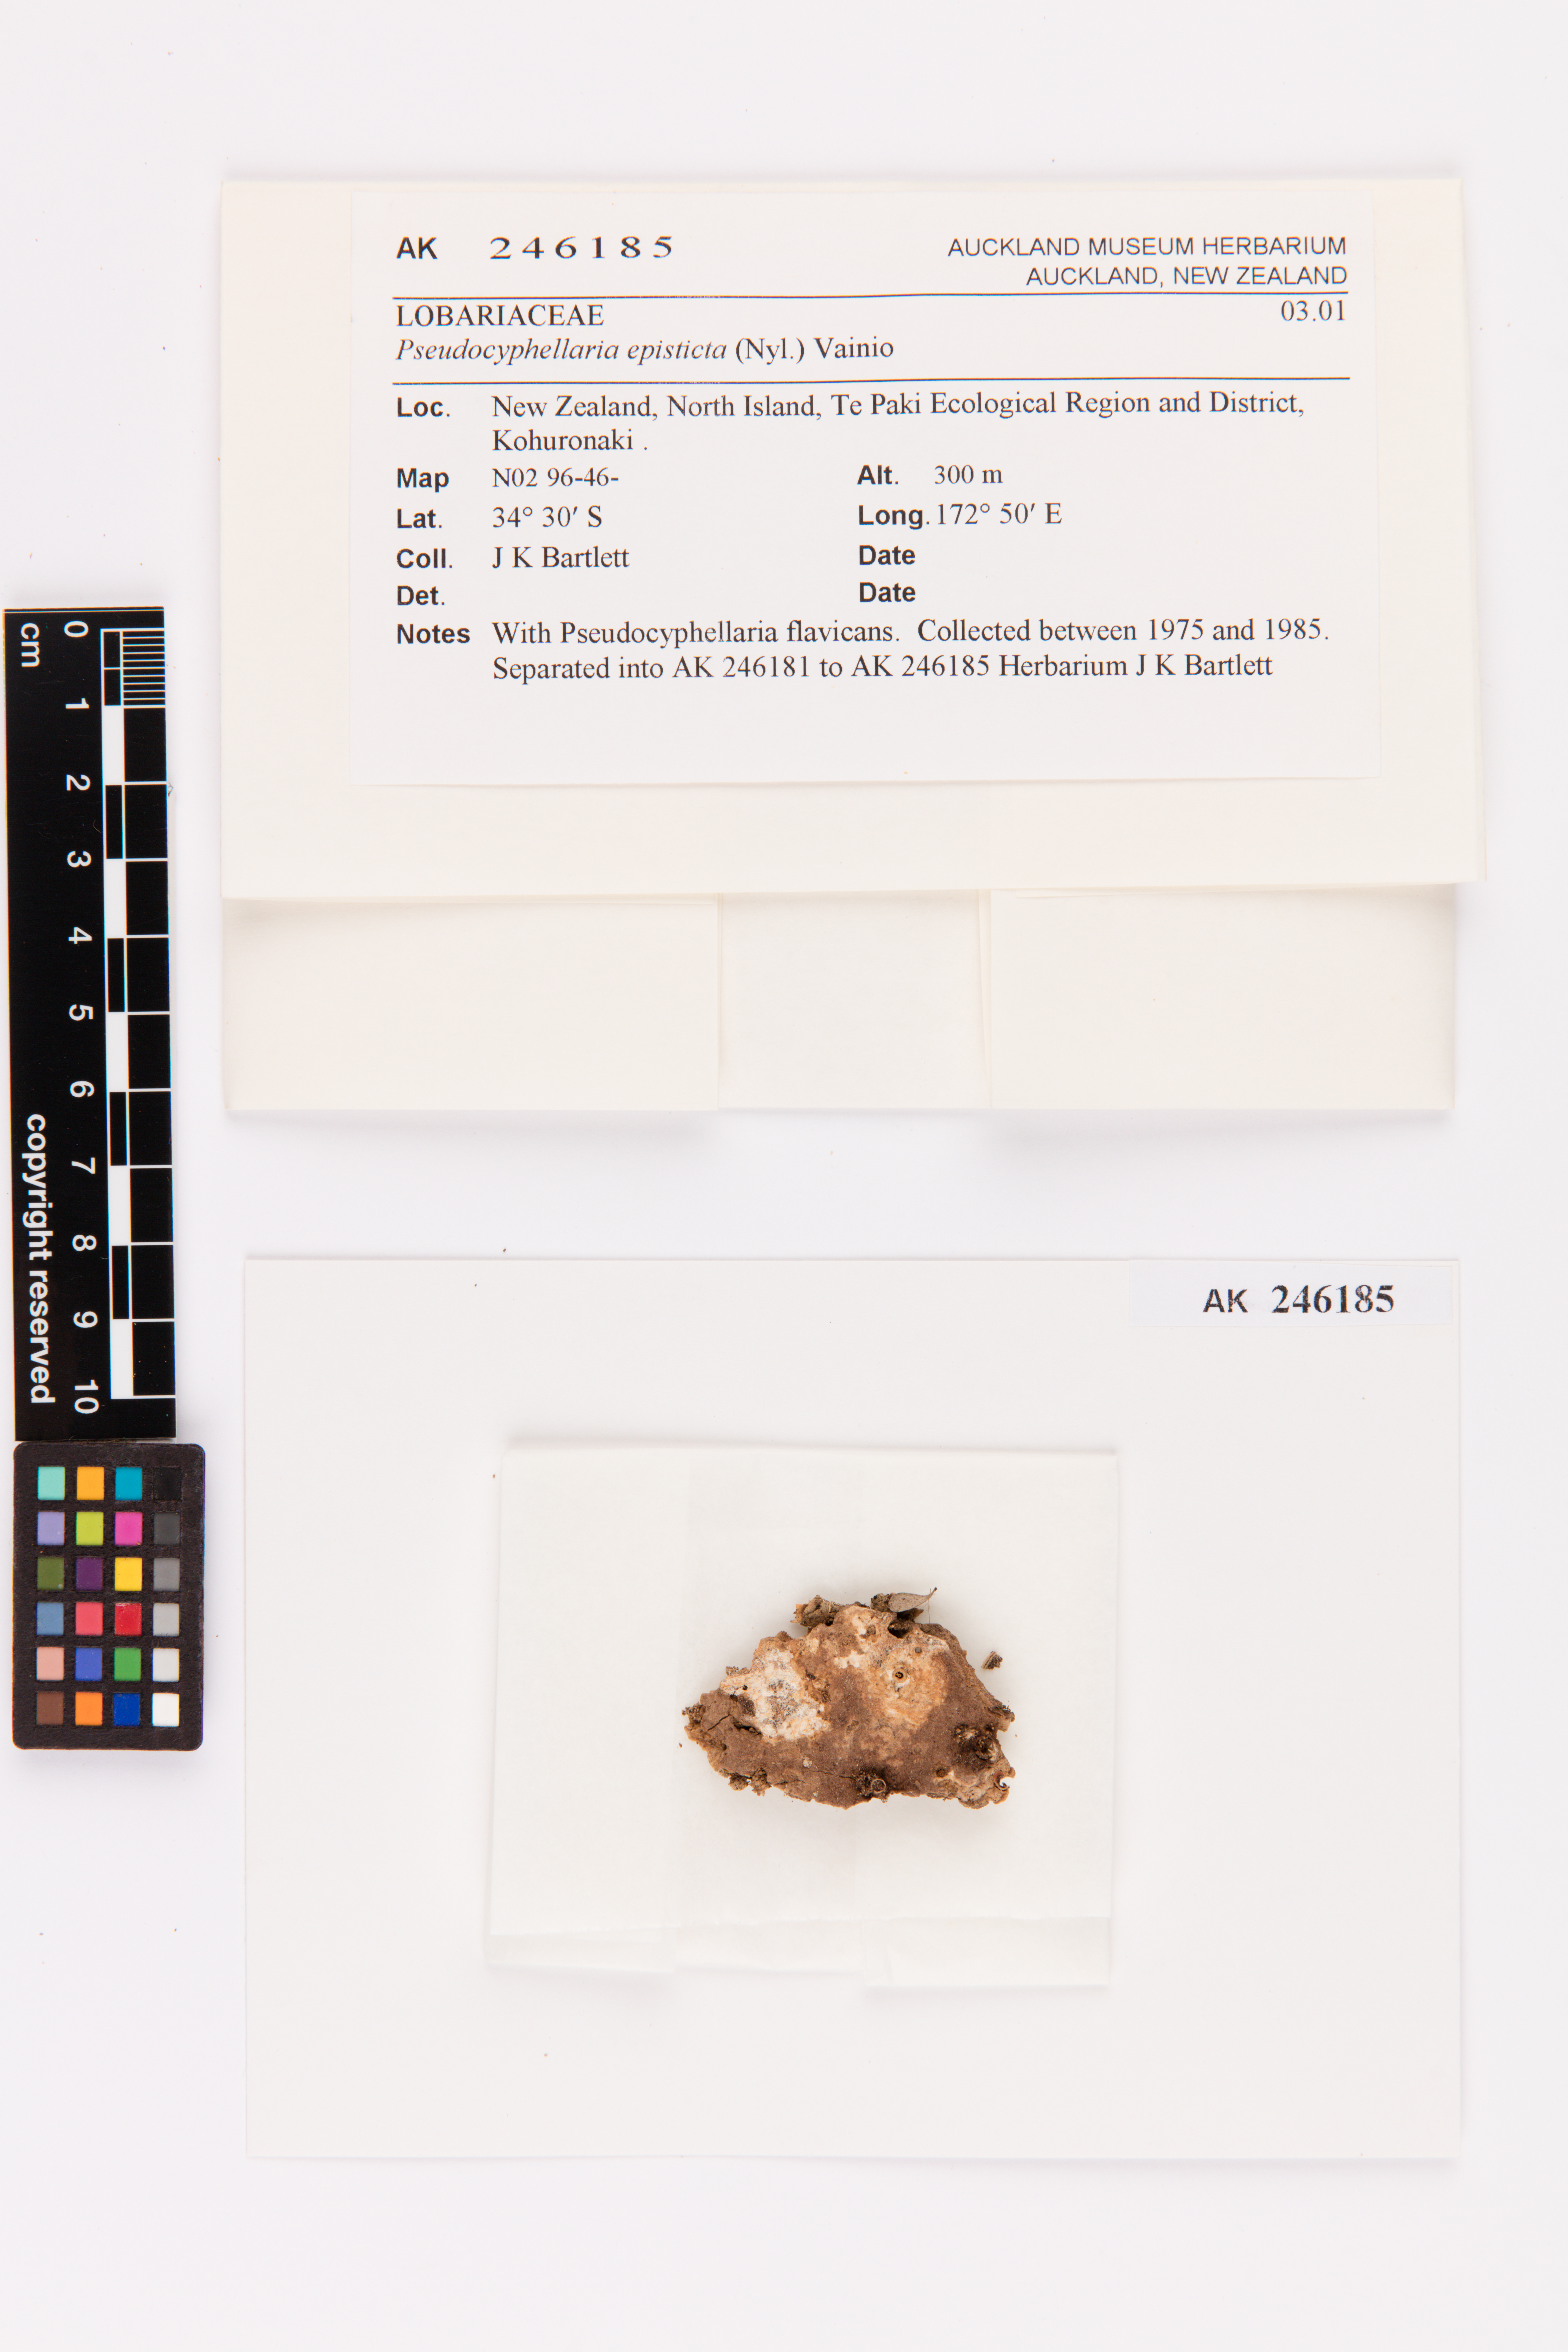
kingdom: Fungi
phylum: Ascomycota
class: Lecanoromycetes
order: Peltigerales
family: Lobariaceae
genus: Pseudocyphellaria
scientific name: Pseudocyphellaria episticta
